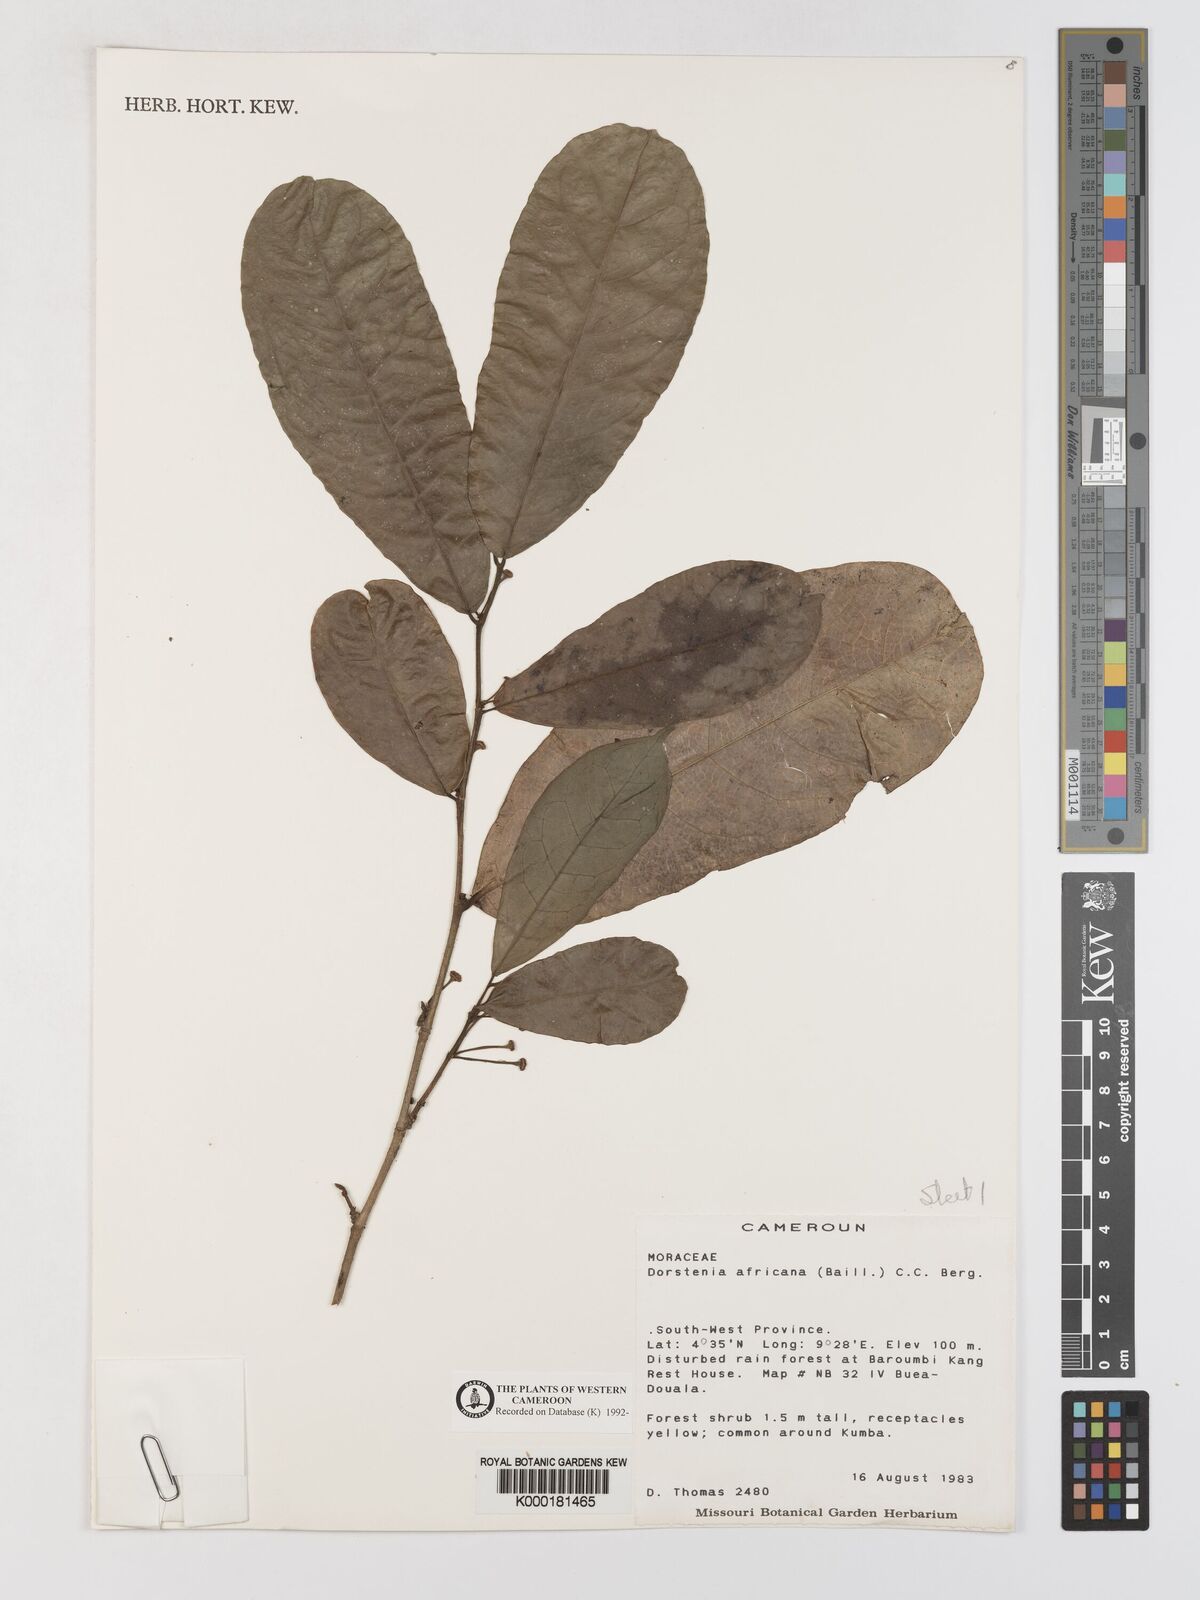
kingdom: Plantae
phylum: Tracheophyta
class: Magnoliopsida
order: Rosales
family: Moraceae
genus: Dorstenia
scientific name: Dorstenia africana
